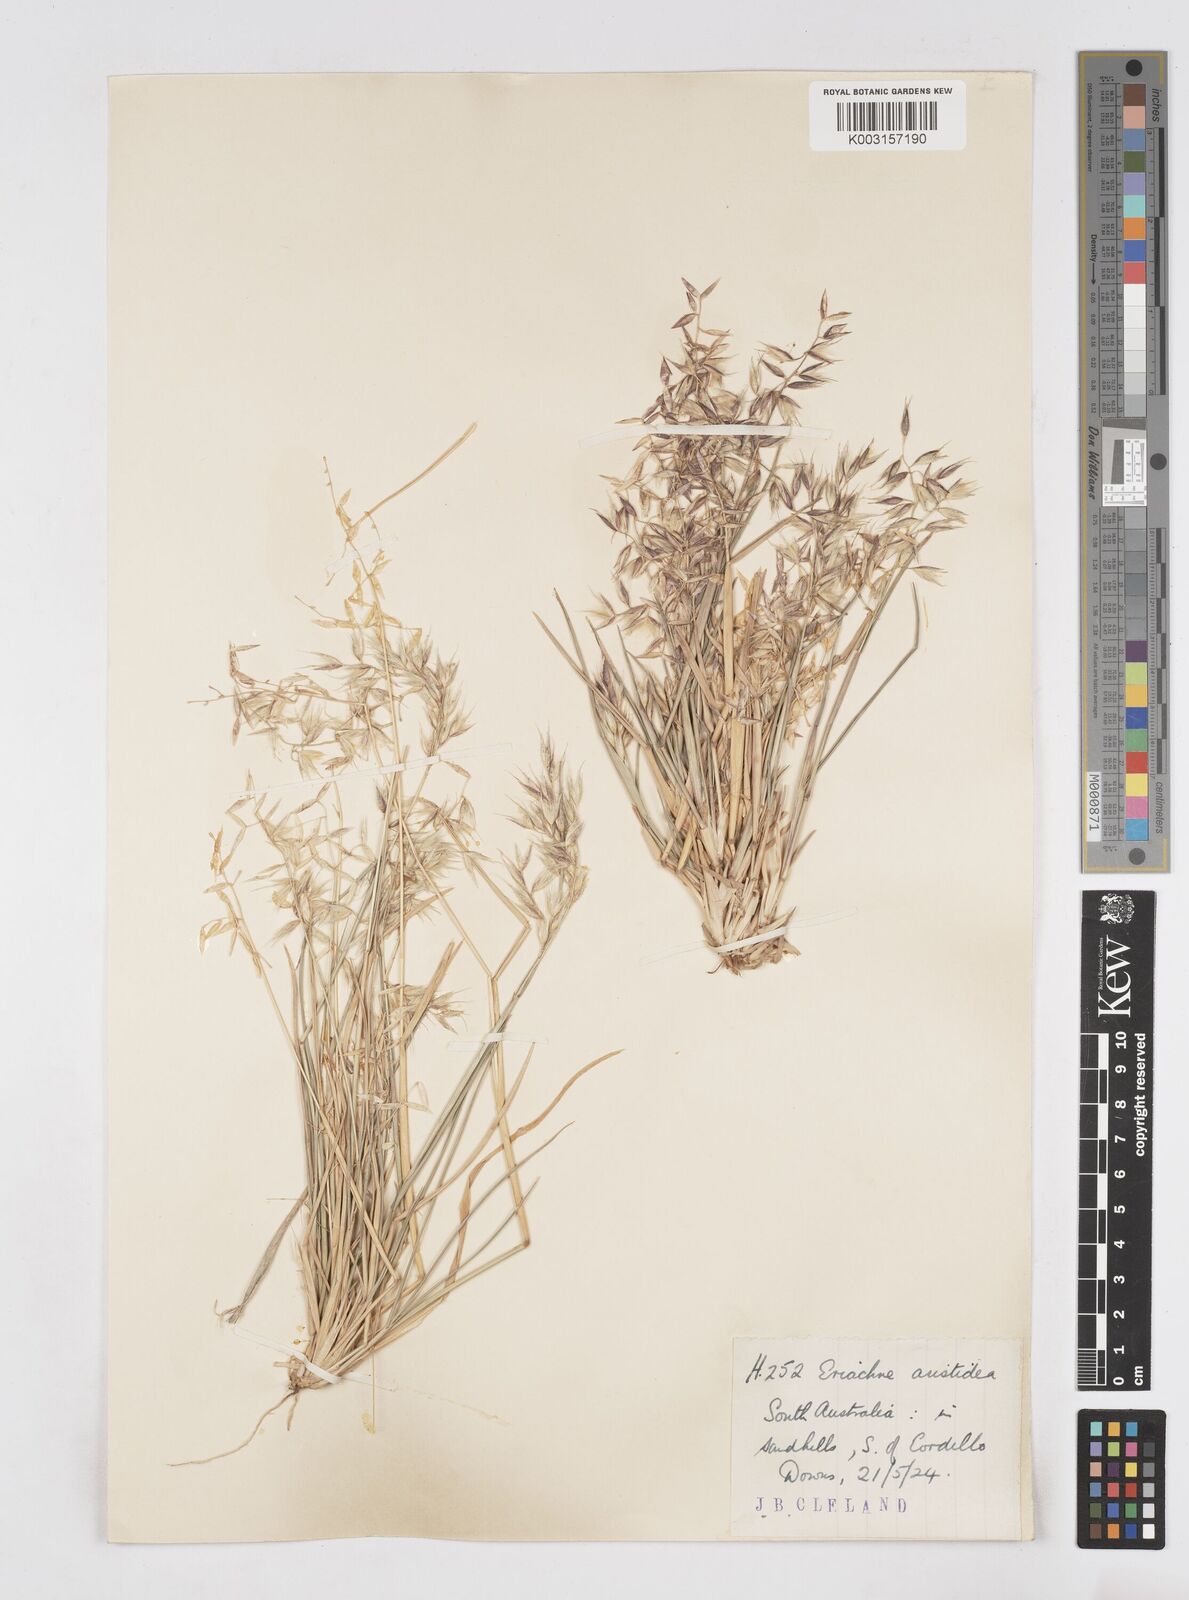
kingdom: Plantae
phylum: Tracheophyta
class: Liliopsida
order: Poales
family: Poaceae
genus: Eriachne
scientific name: Eriachne aristidea
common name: Three-awn wanderrie grass
